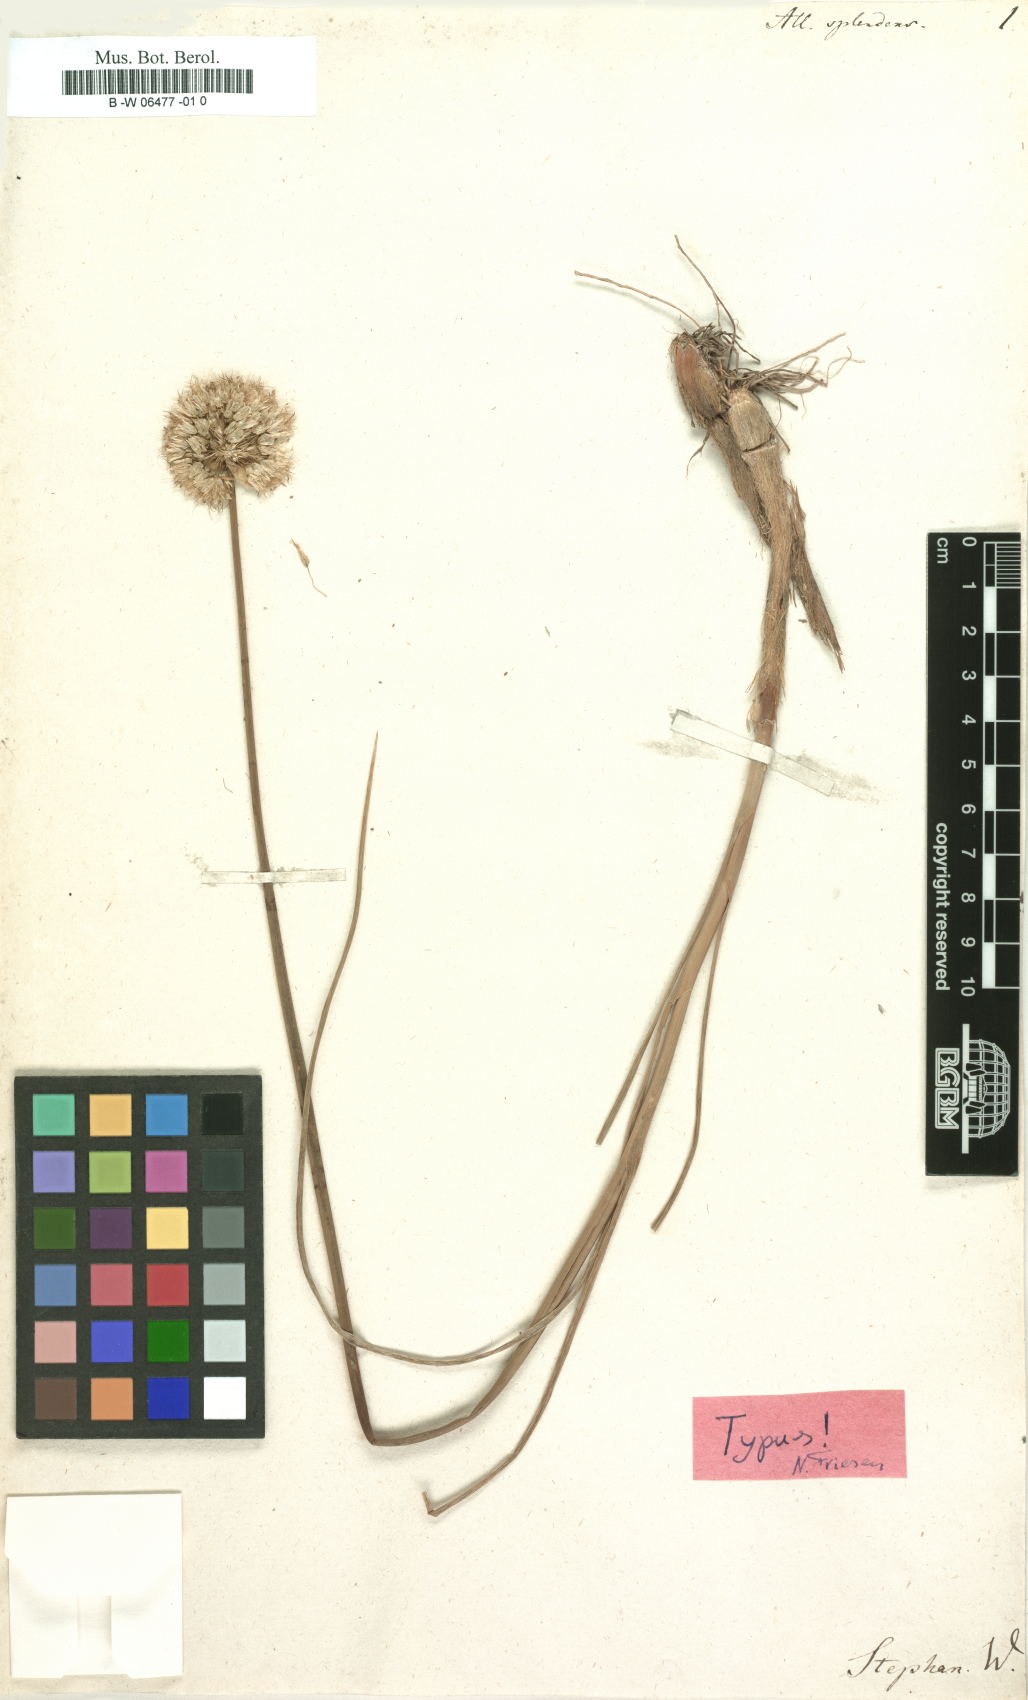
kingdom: Plantae
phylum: Tracheophyta
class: Liliopsida
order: Asparagales
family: Amaryllidaceae
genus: Allium
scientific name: Allium splendens
